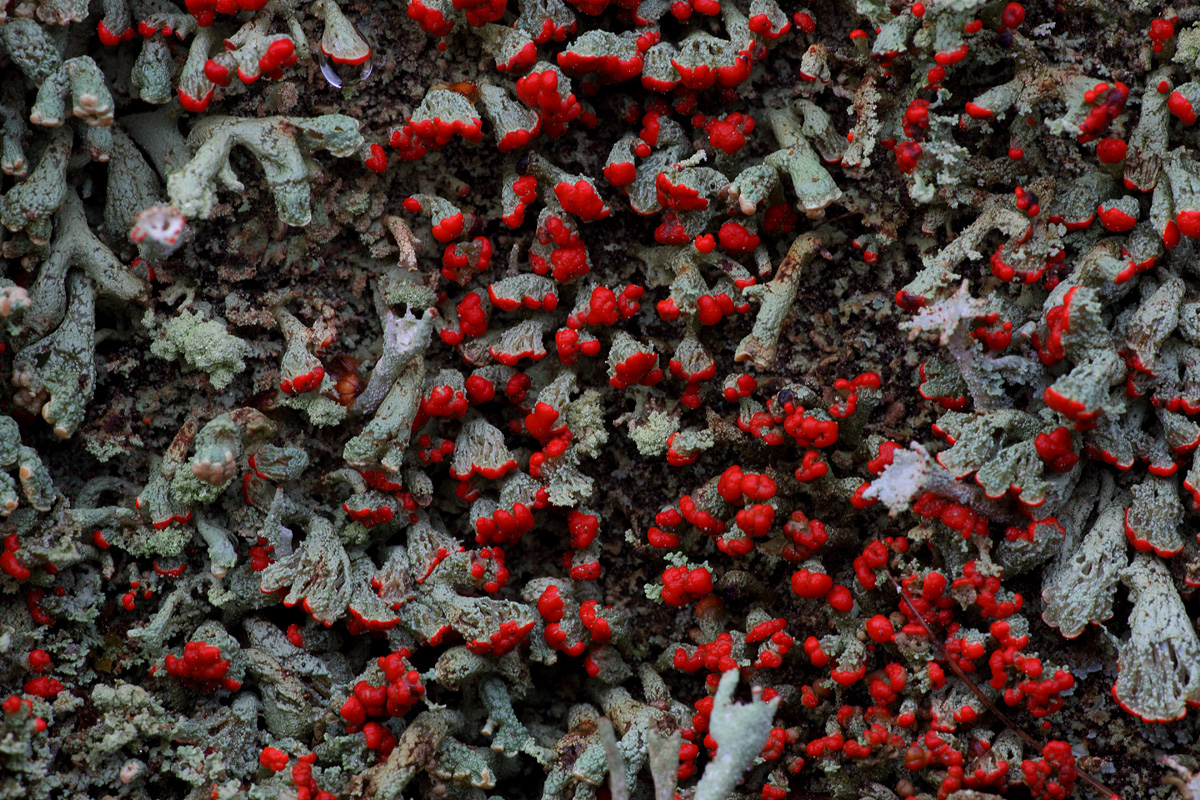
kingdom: Fungi
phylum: Ascomycota
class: Lecanoromycetes
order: Lecanorales
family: Cladoniaceae
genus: Cladonia
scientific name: Cladonia incrassata
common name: tørve-bægerlav
